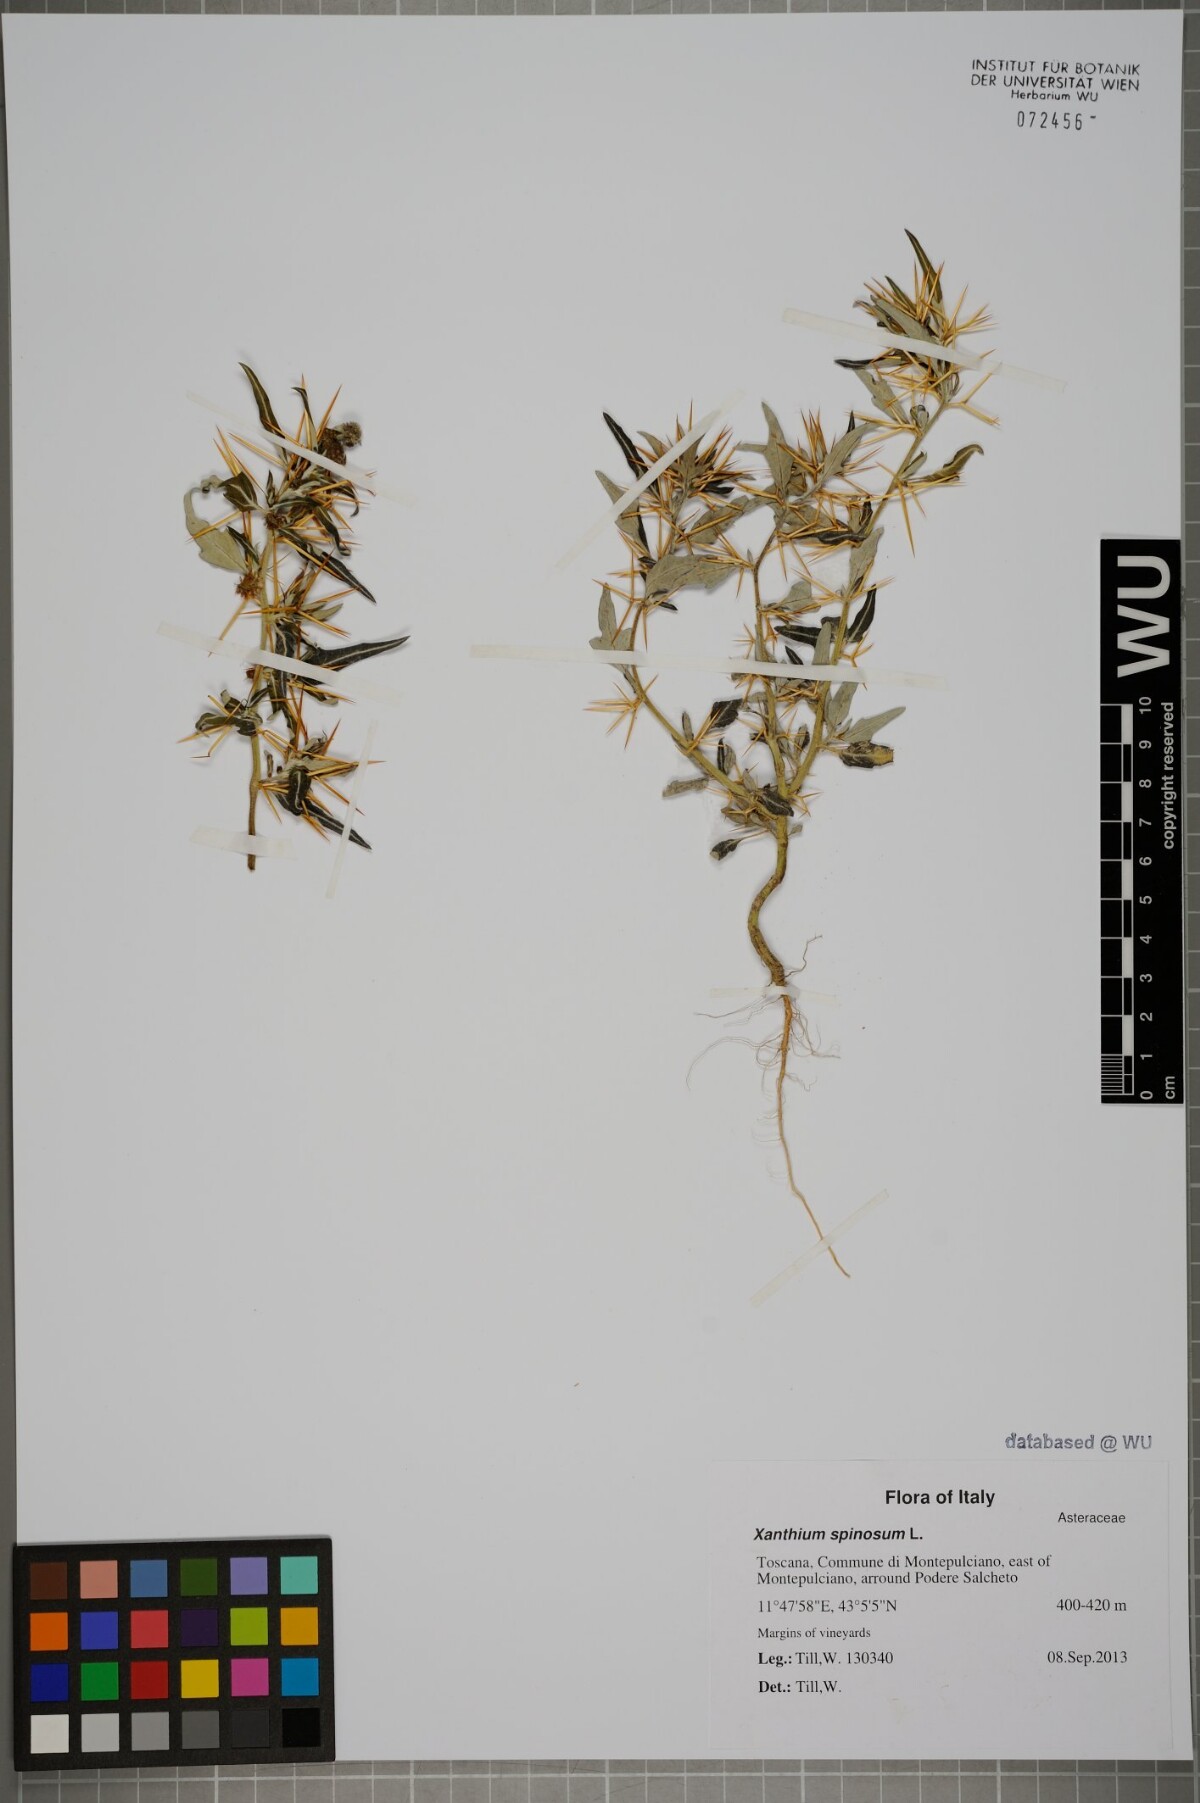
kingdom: Plantae
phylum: Tracheophyta
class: Magnoliopsida
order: Asterales
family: Asteraceae
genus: Xanthium
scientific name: Xanthium spinosum
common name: Spiny cocklebur
